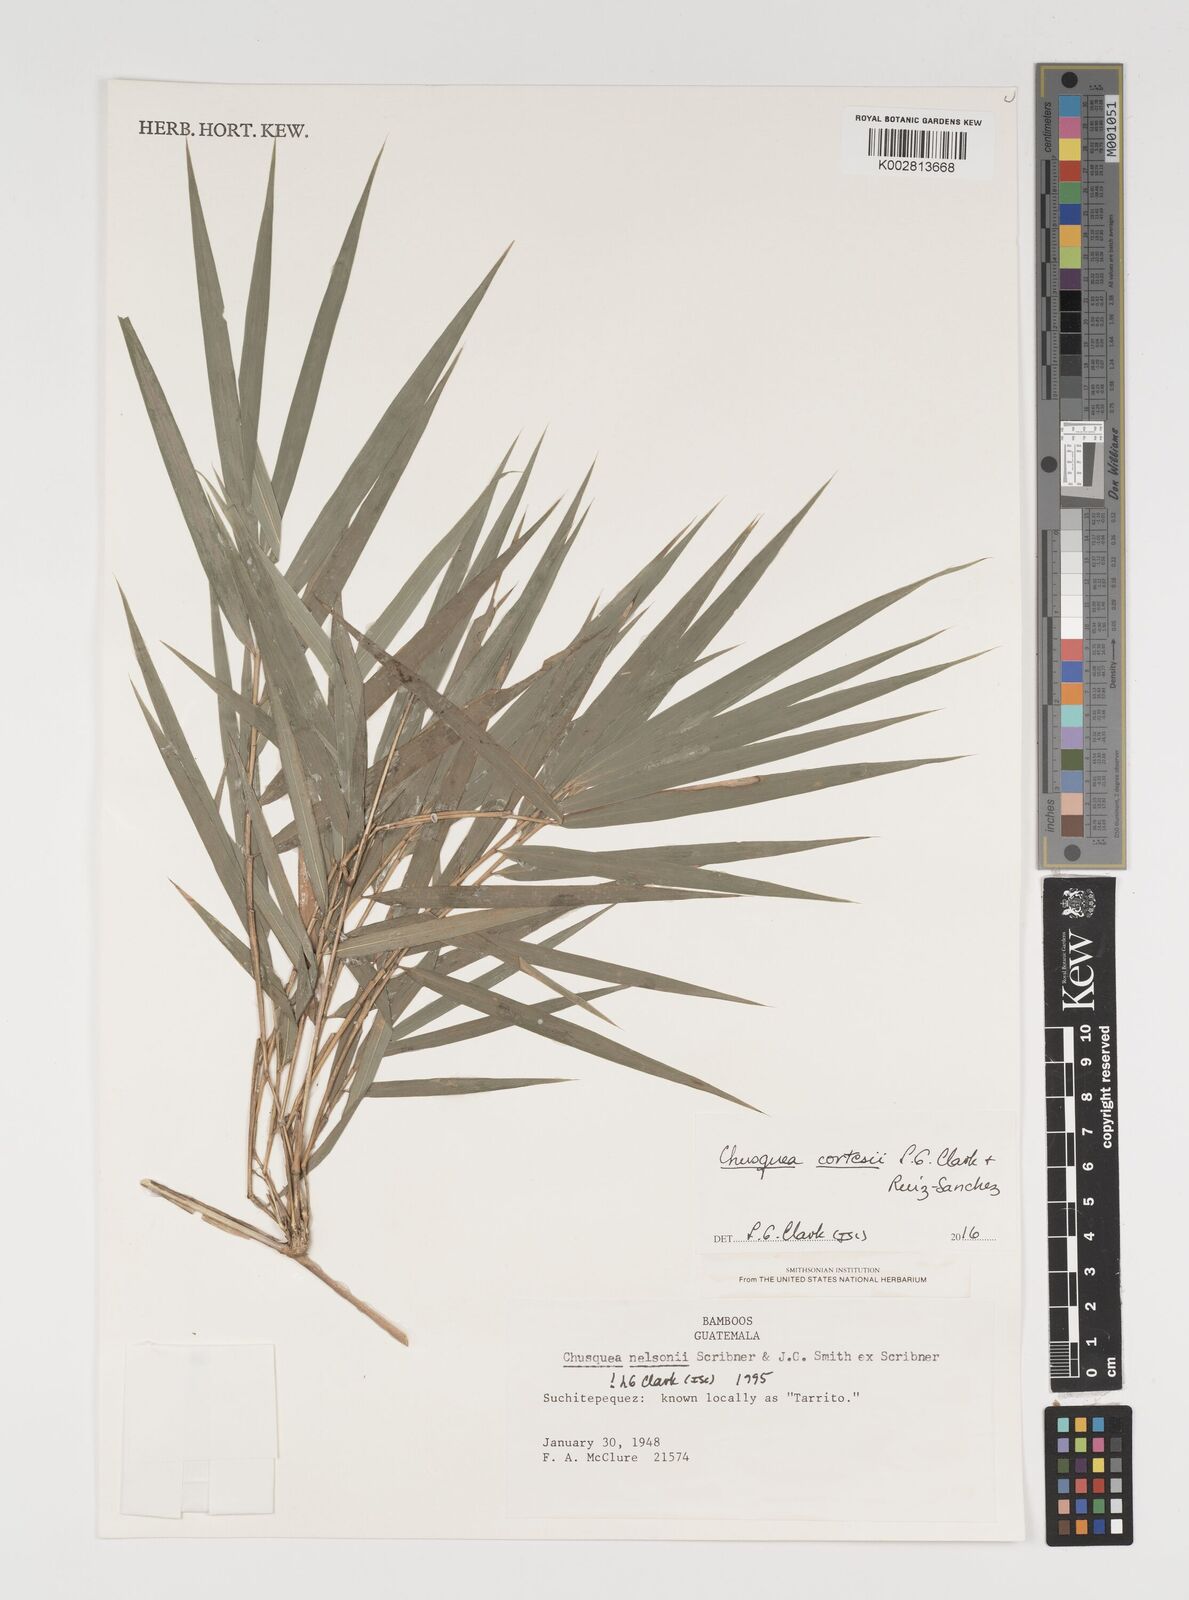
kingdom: Plantae
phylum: Tracheophyta
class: Liliopsida
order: Poales
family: Poaceae
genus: Chusquea
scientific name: Chusquea cortesii
